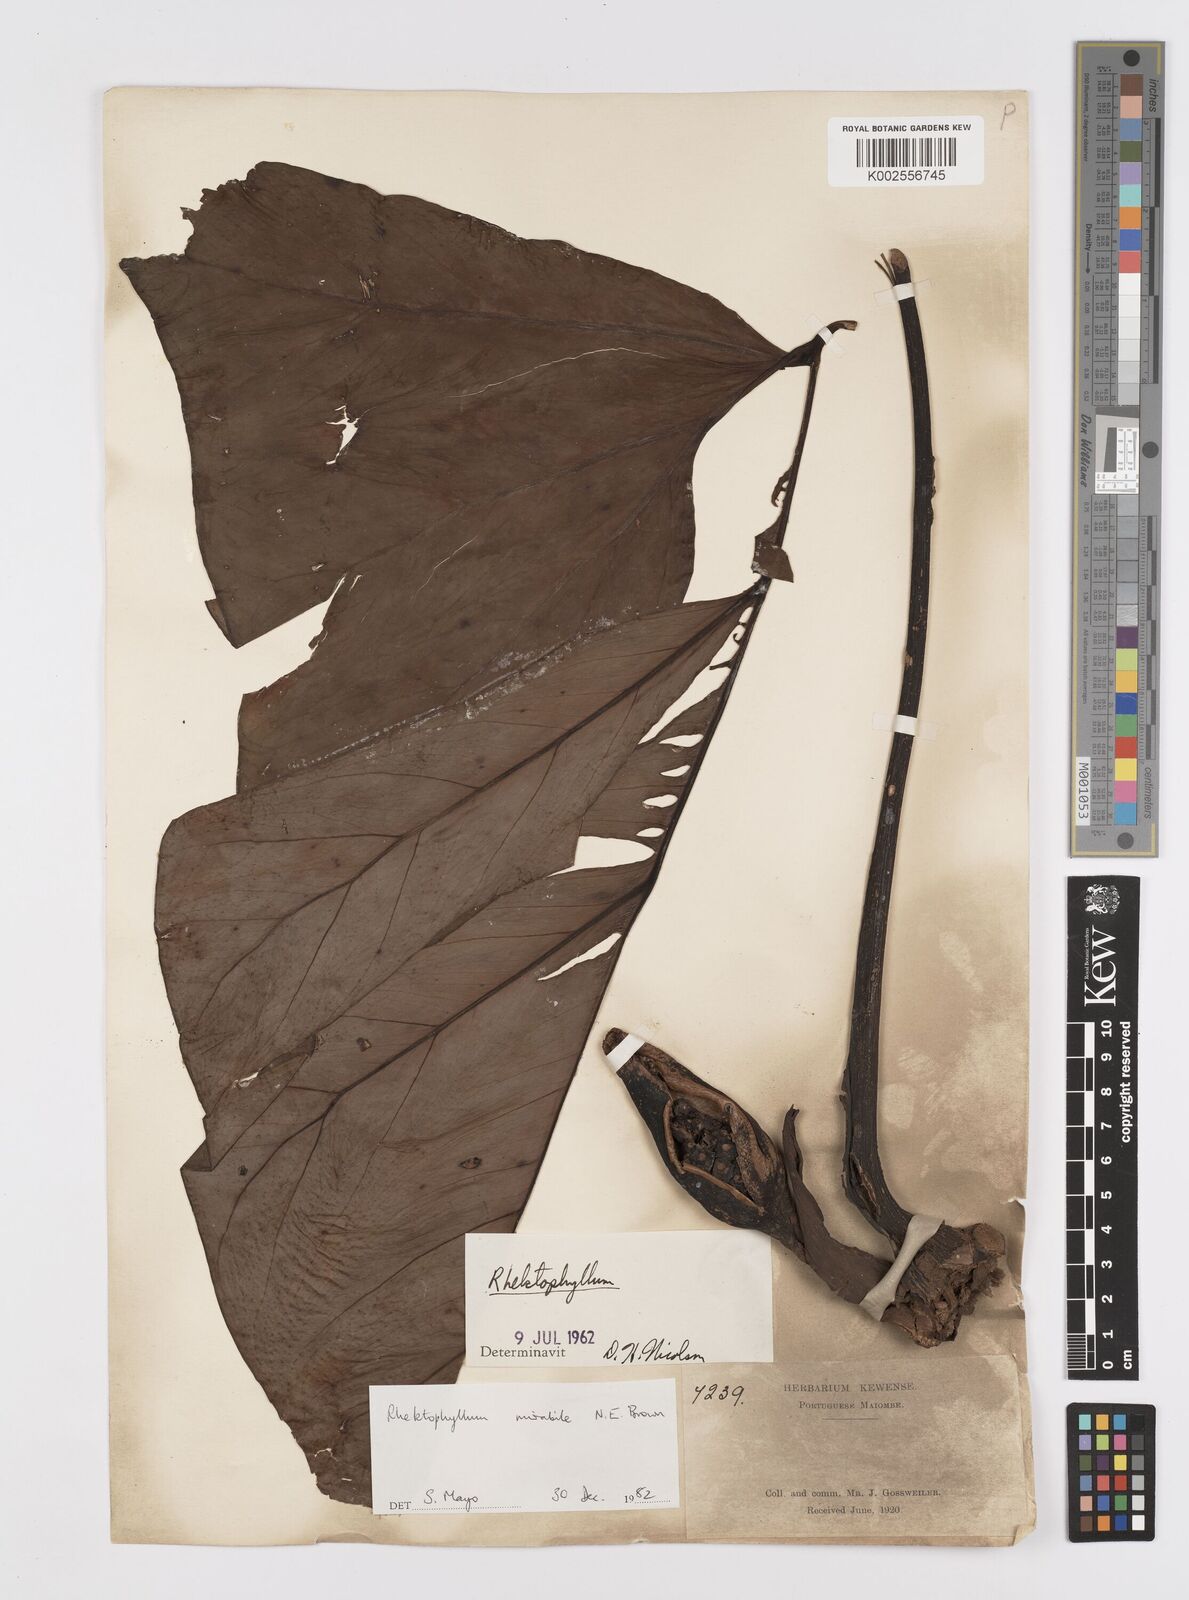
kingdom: Plantae
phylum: Tracheophyta
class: Liliopsida
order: Alismatales
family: Araceae
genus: Cercestis
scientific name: Cercestis mirabilis
